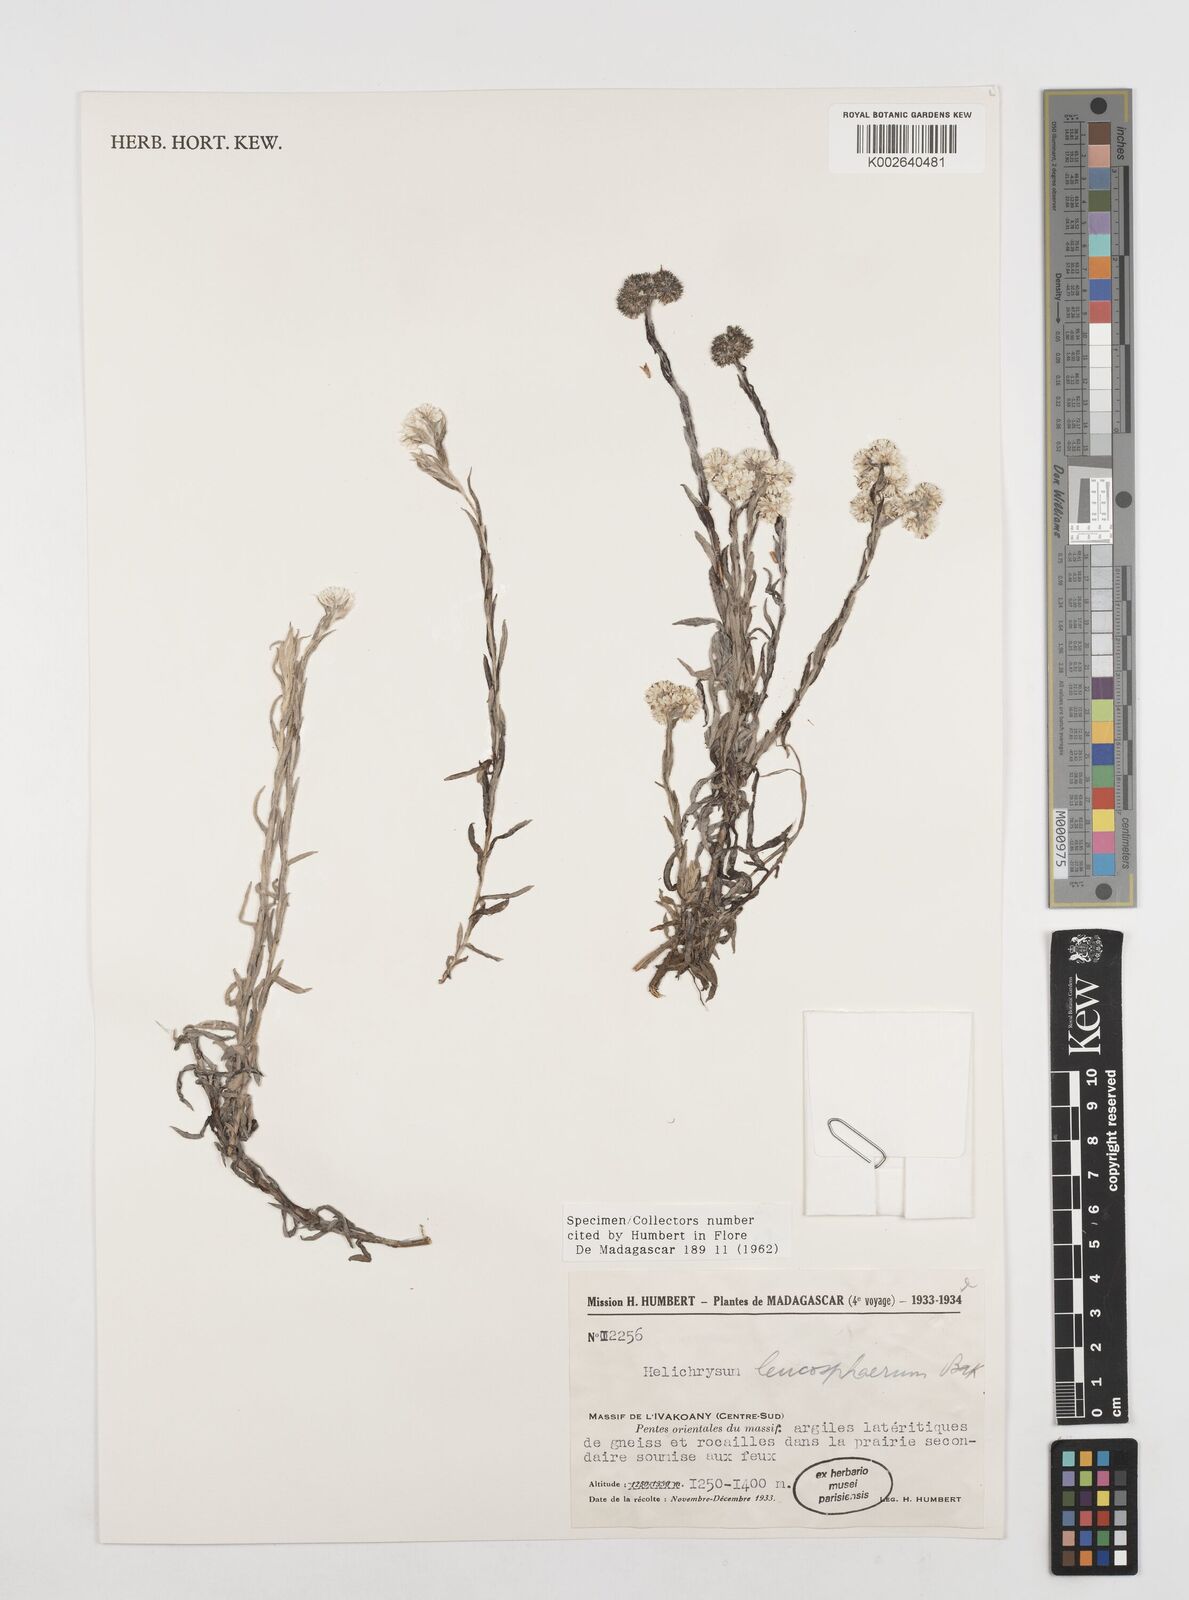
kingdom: Plantae
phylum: Tracheophyta
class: Magnoliopsida
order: Asterales
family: Asteraceae
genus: Helichrysum
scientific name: Helichrysum leucosphaerum
